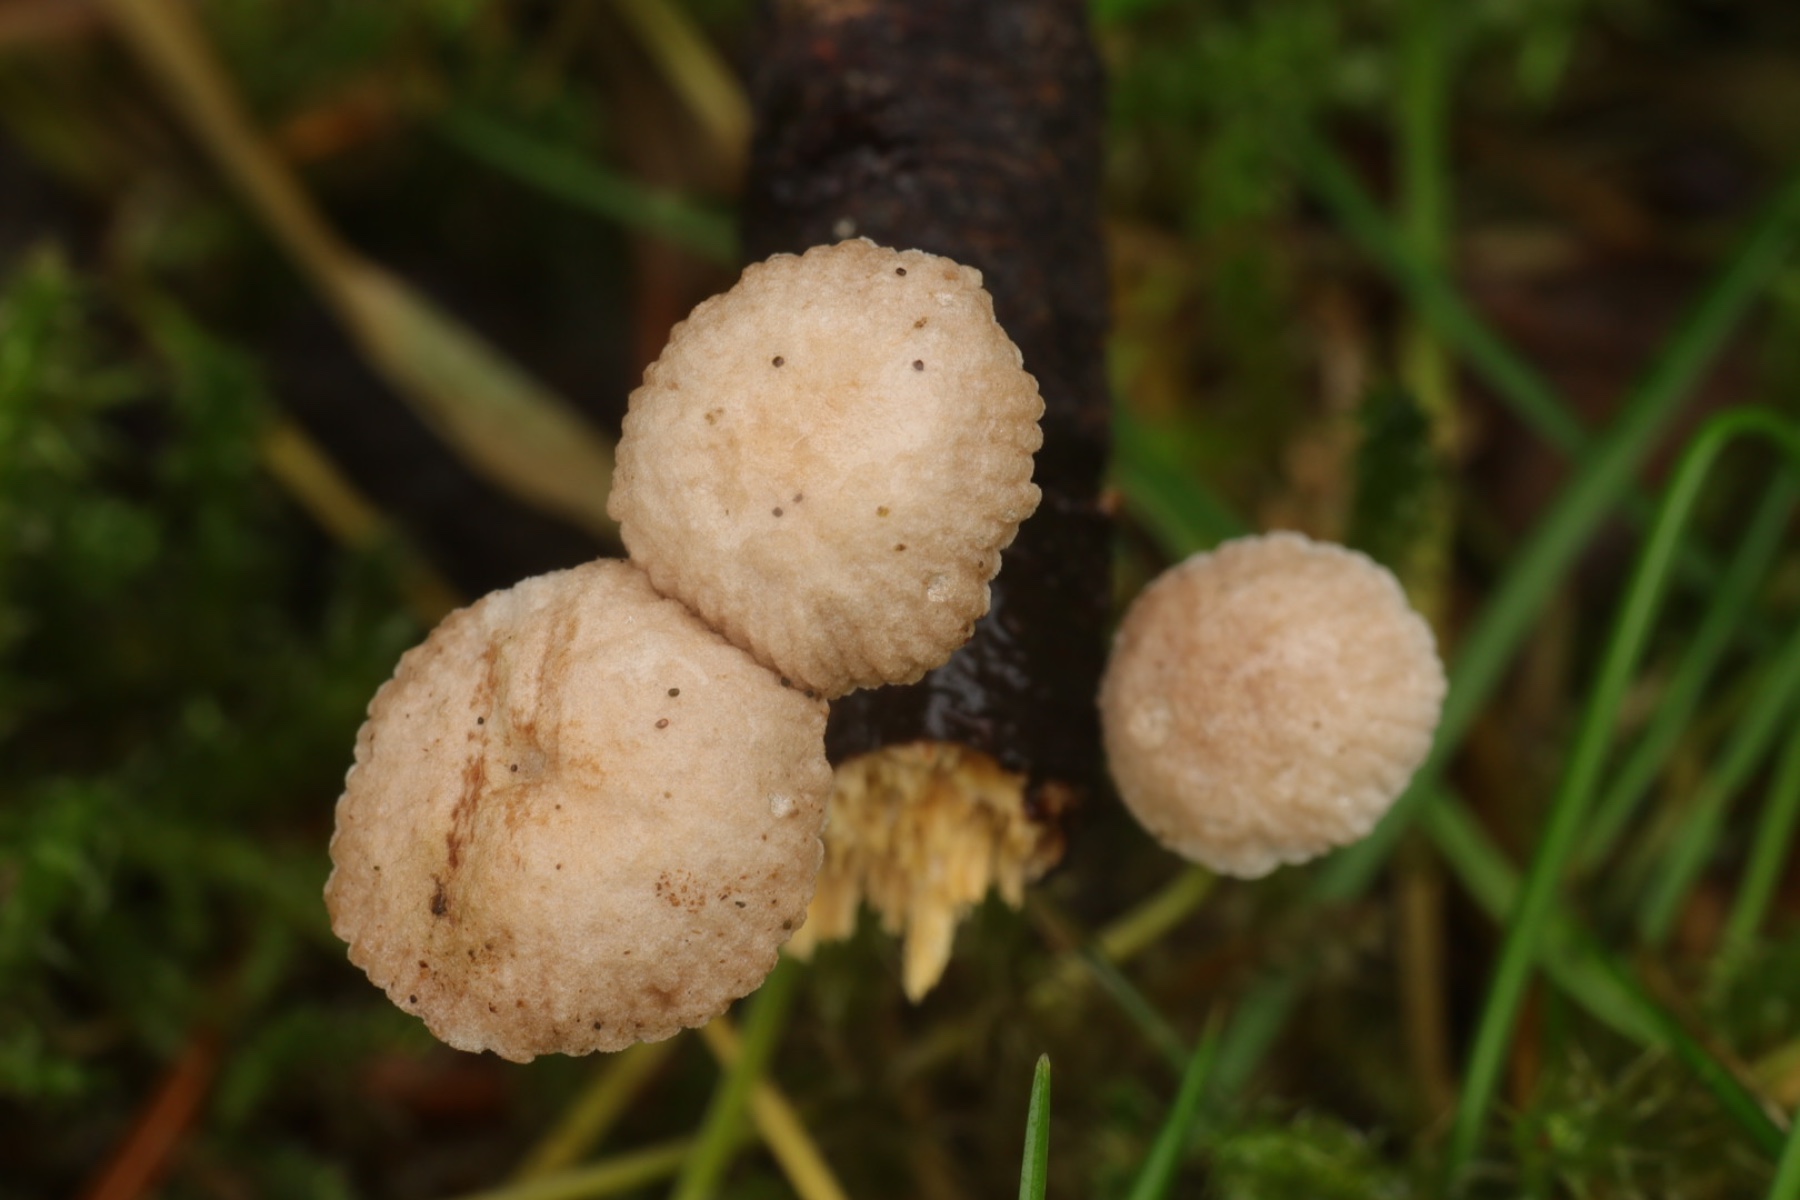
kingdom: Fungi
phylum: Basidiomycota
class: Agaricomycetes
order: Agaricales
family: Omphalotaceae
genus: Collybiopsis
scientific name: Collybiopsis ramealis
